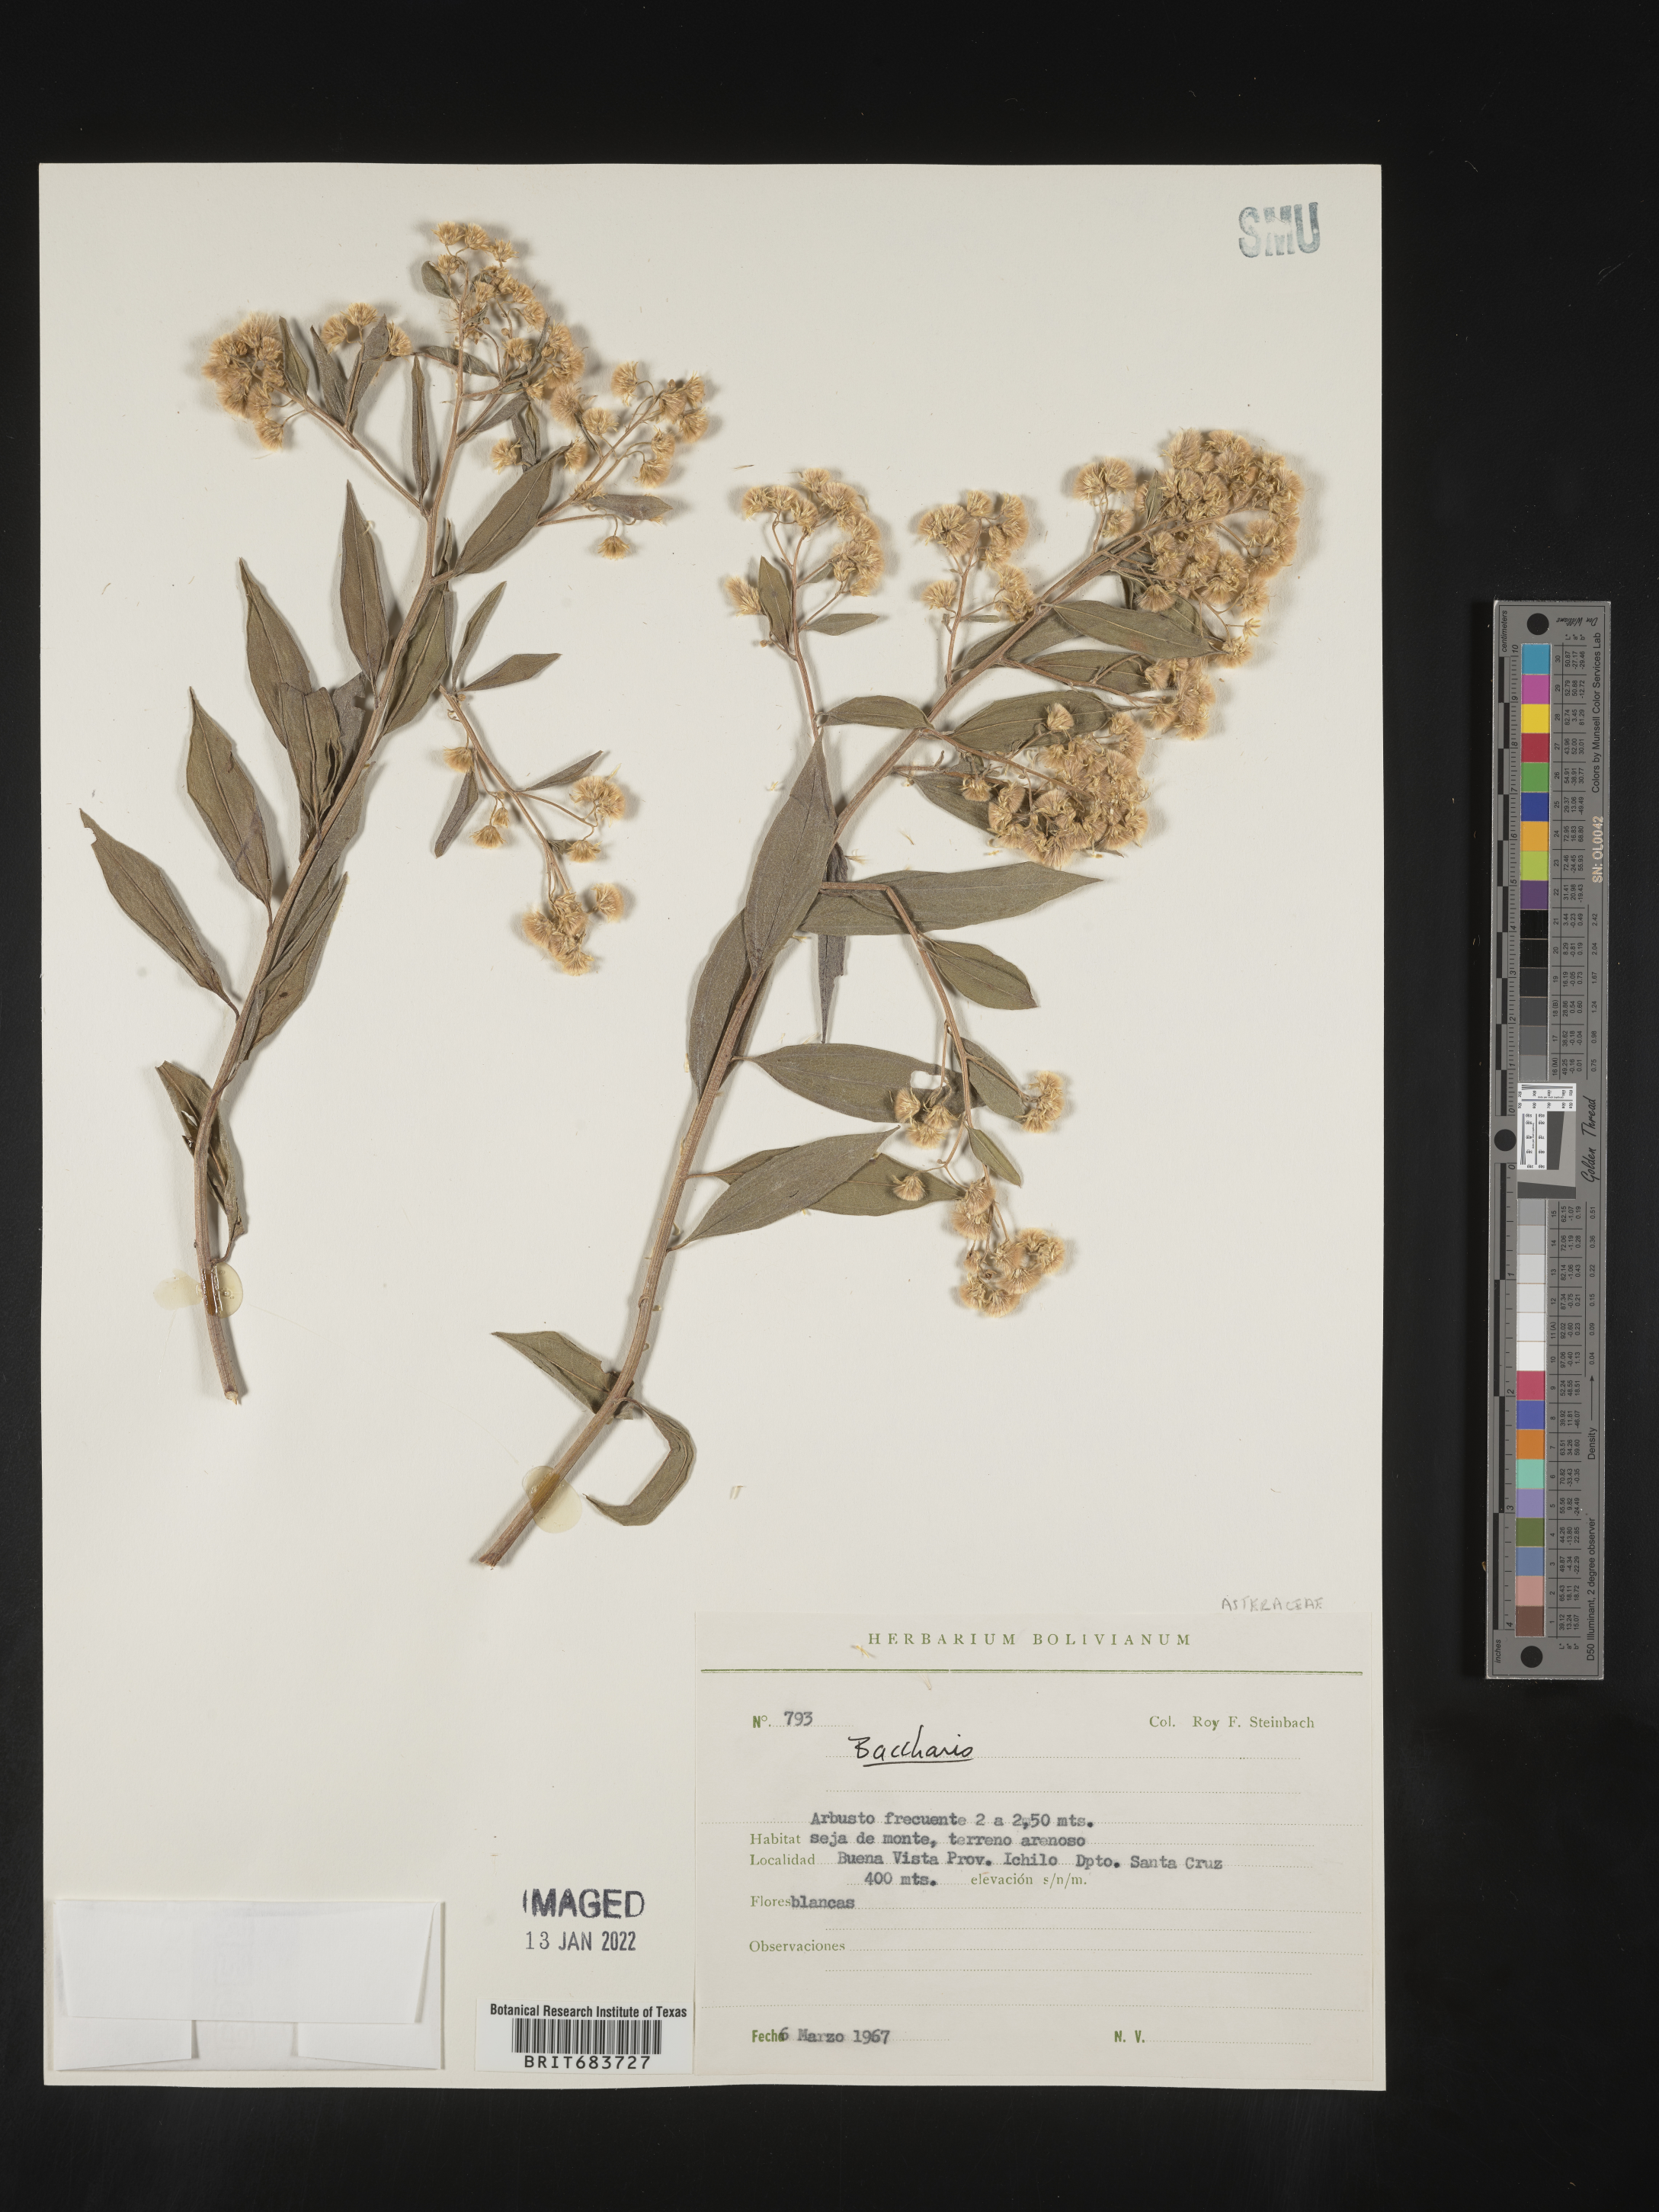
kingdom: Plantae
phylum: Tracheophyta
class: Magnoliopsida
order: Asterales
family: Asteraceae
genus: Baccharis
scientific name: Baccharis
